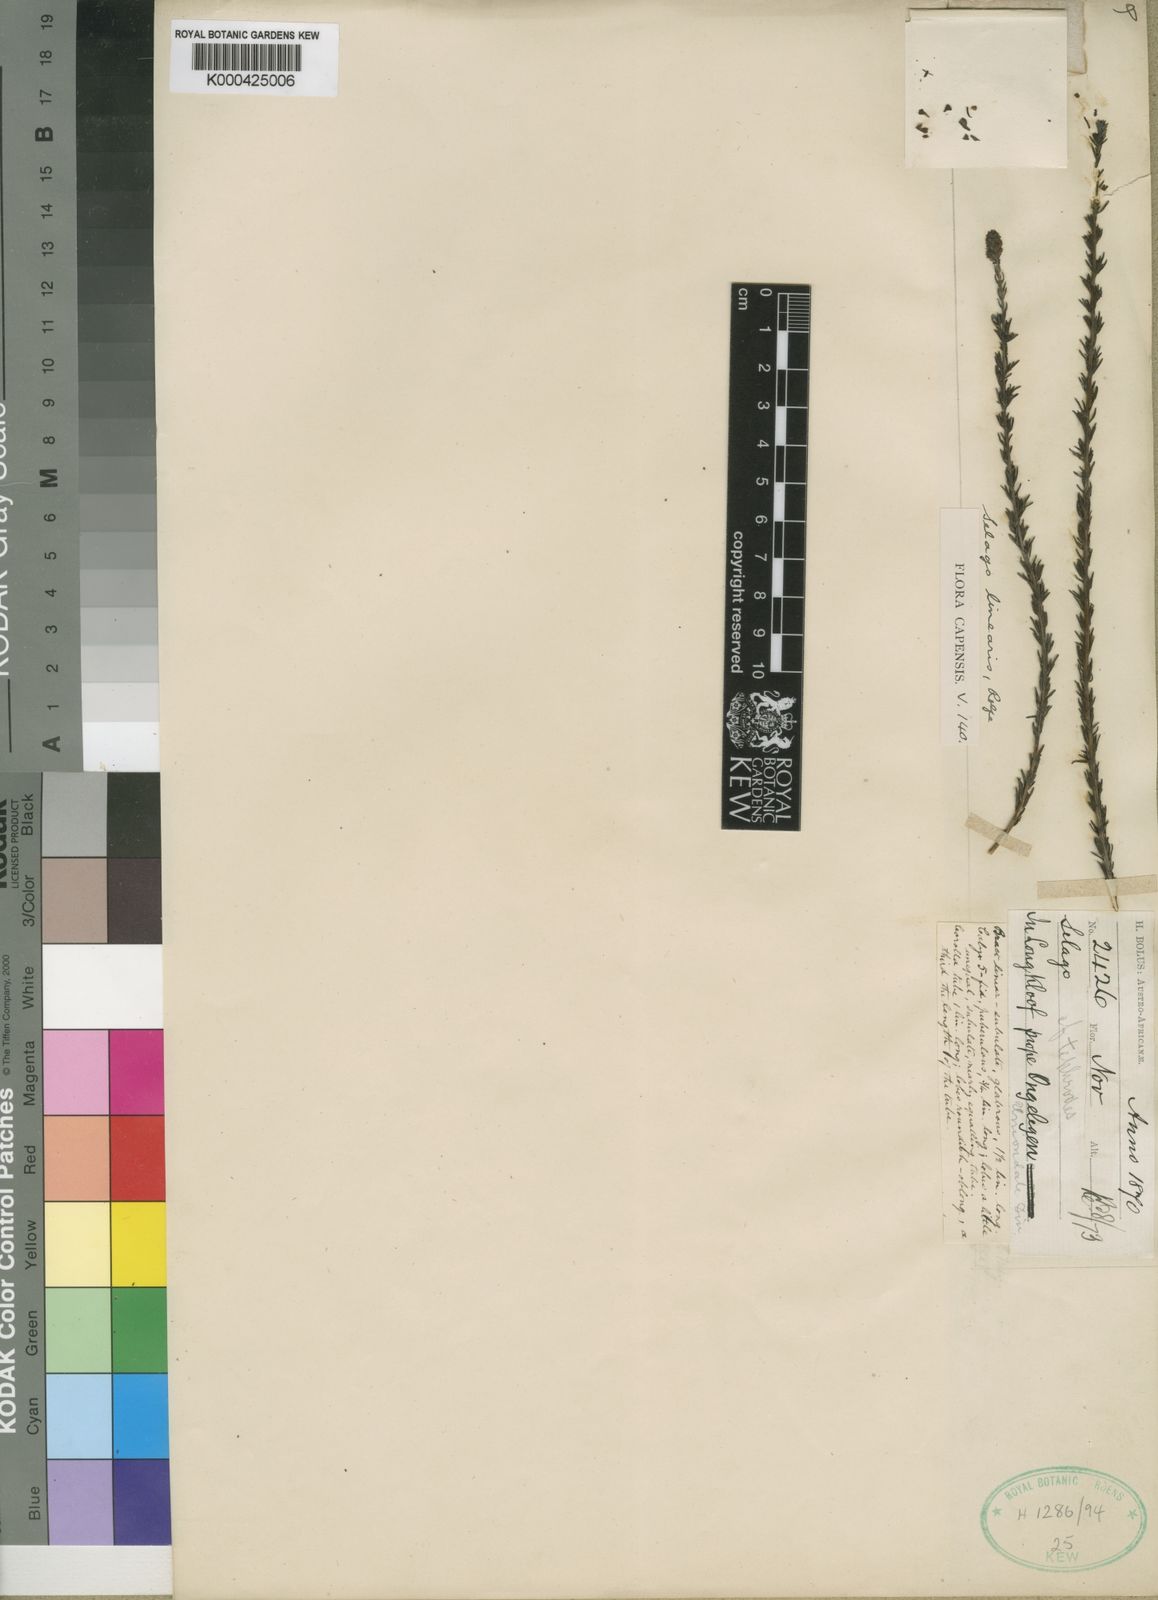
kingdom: Plantae
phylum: Tracheophyta
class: Magnoliopsida
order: Lamiales
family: Scrophulariaceae
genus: Selago
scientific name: Selago linearis
